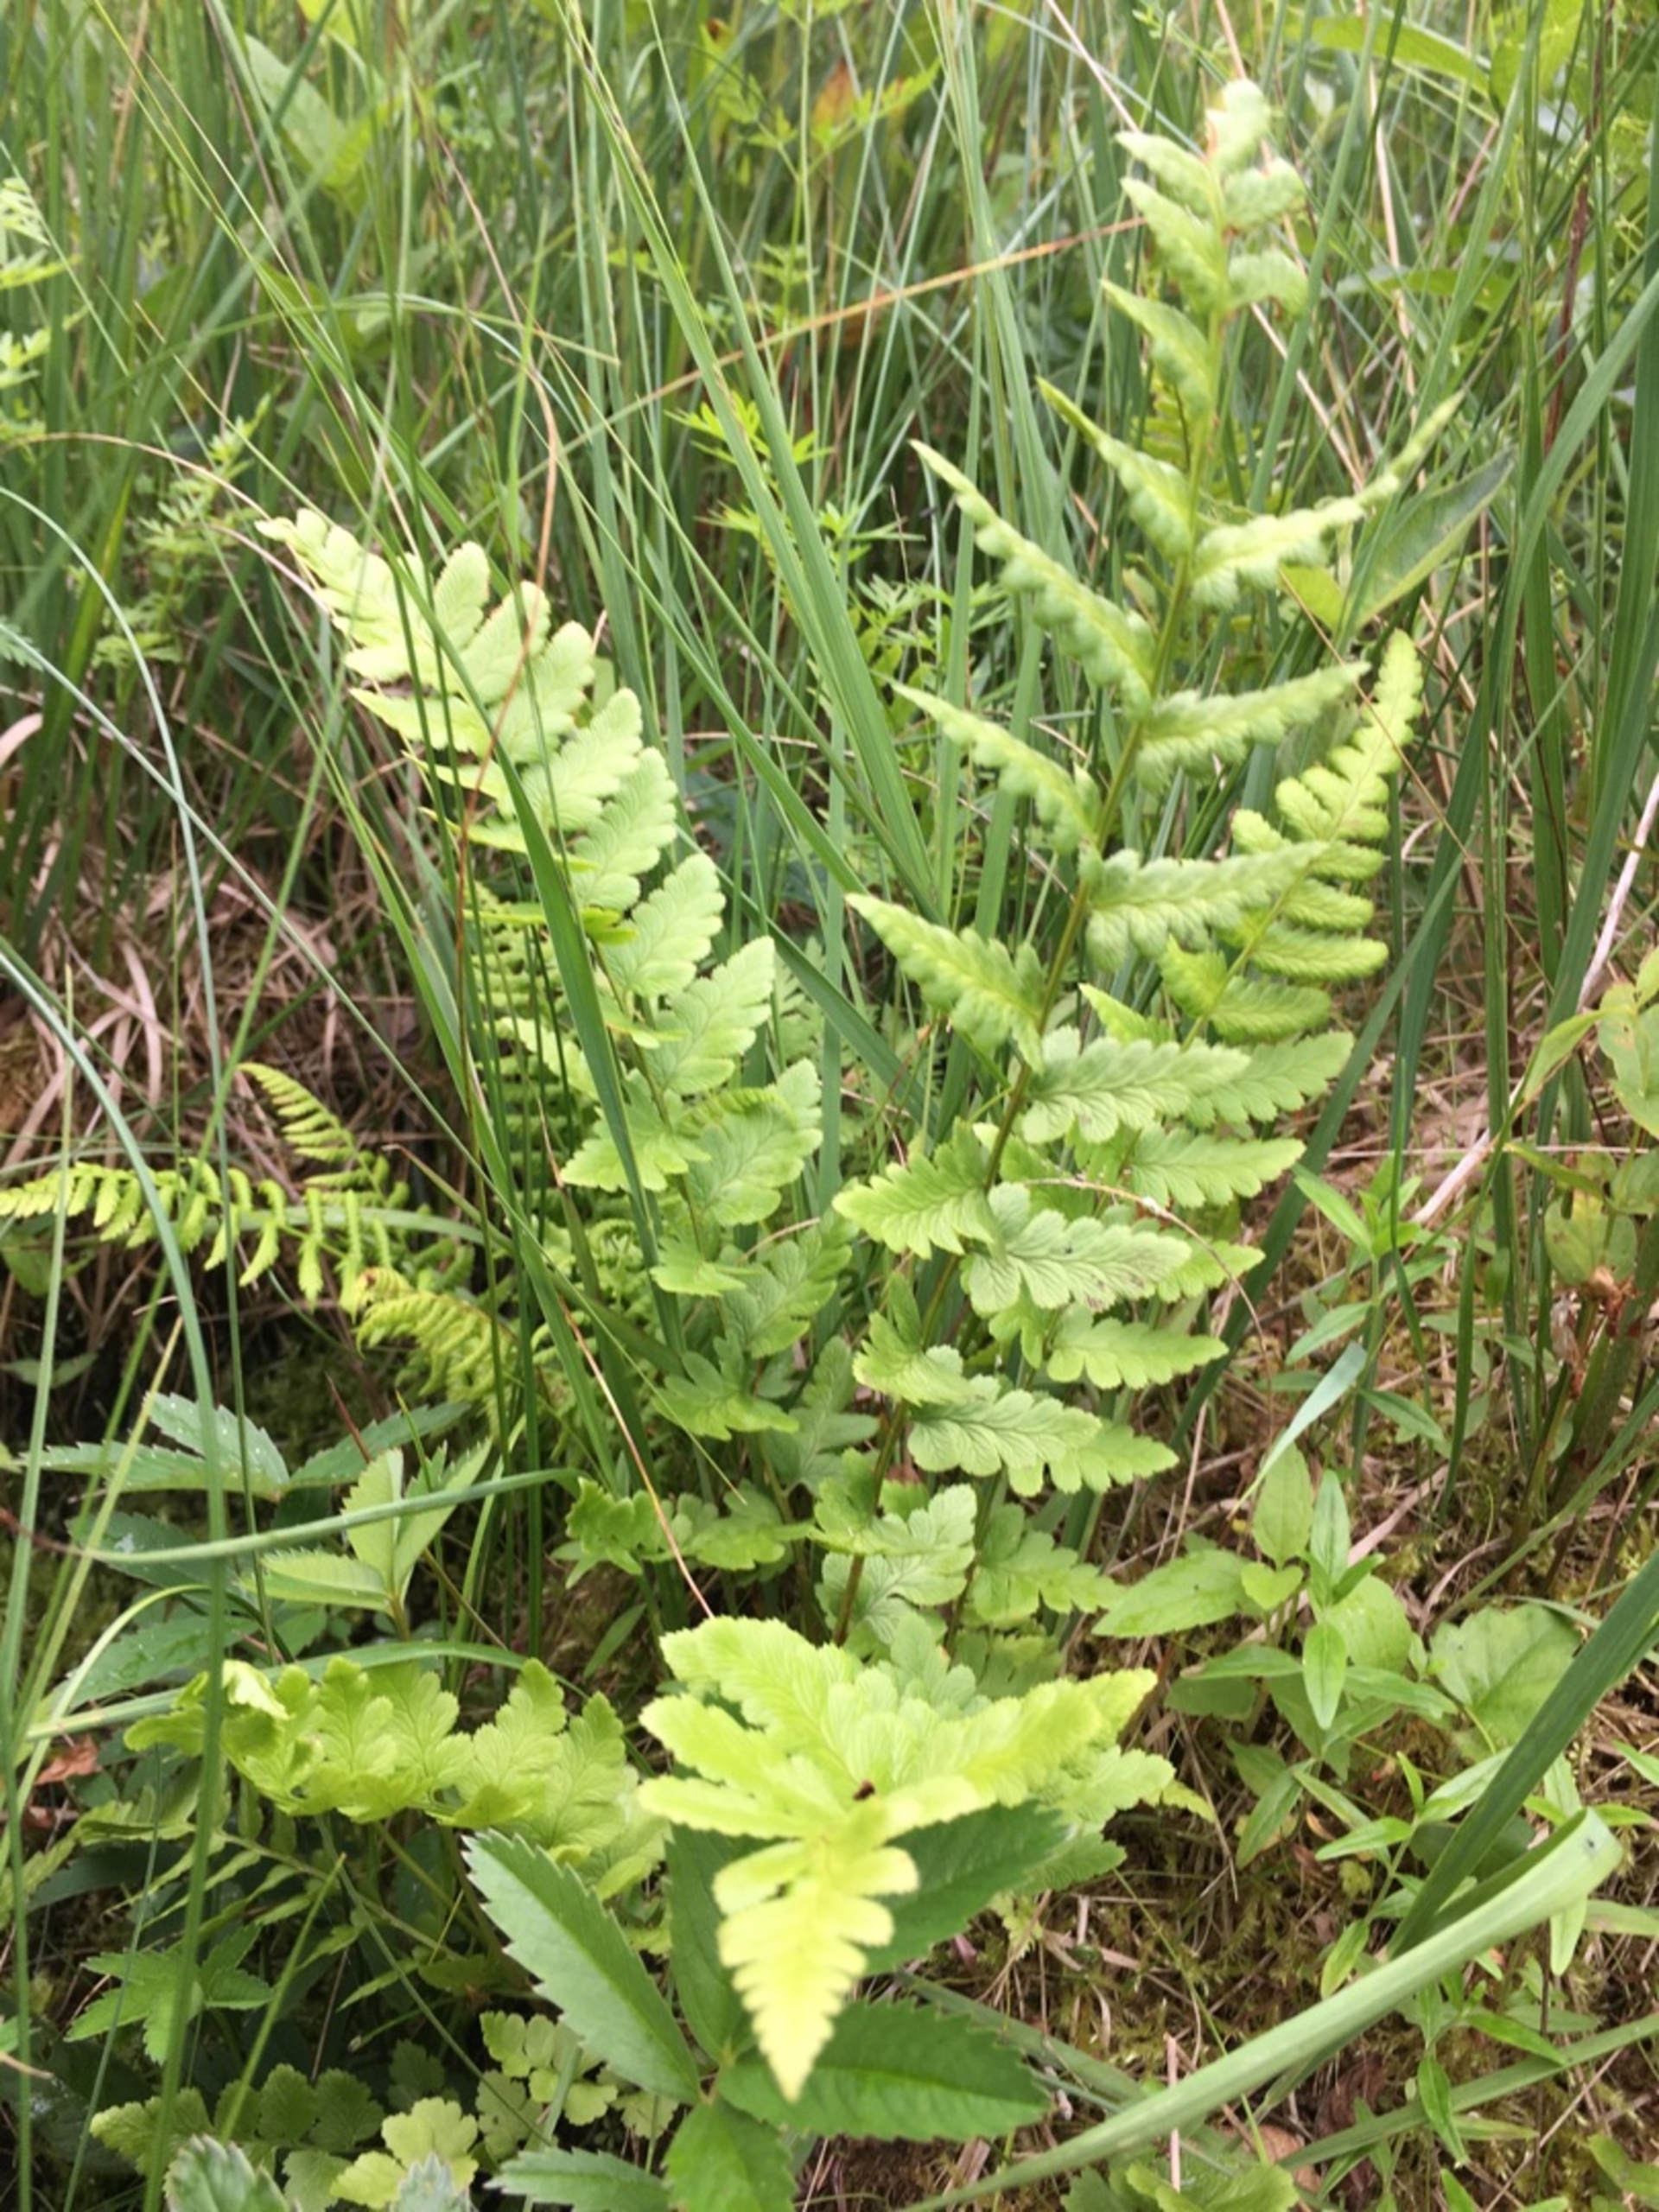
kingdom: Plantae
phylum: Tracheophyta
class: Polypodiopsida
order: Polypodiales
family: Dryopteridaceae
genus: Dryopteris
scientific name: Dryopteris cristata
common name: Butfinnet mangeløv
